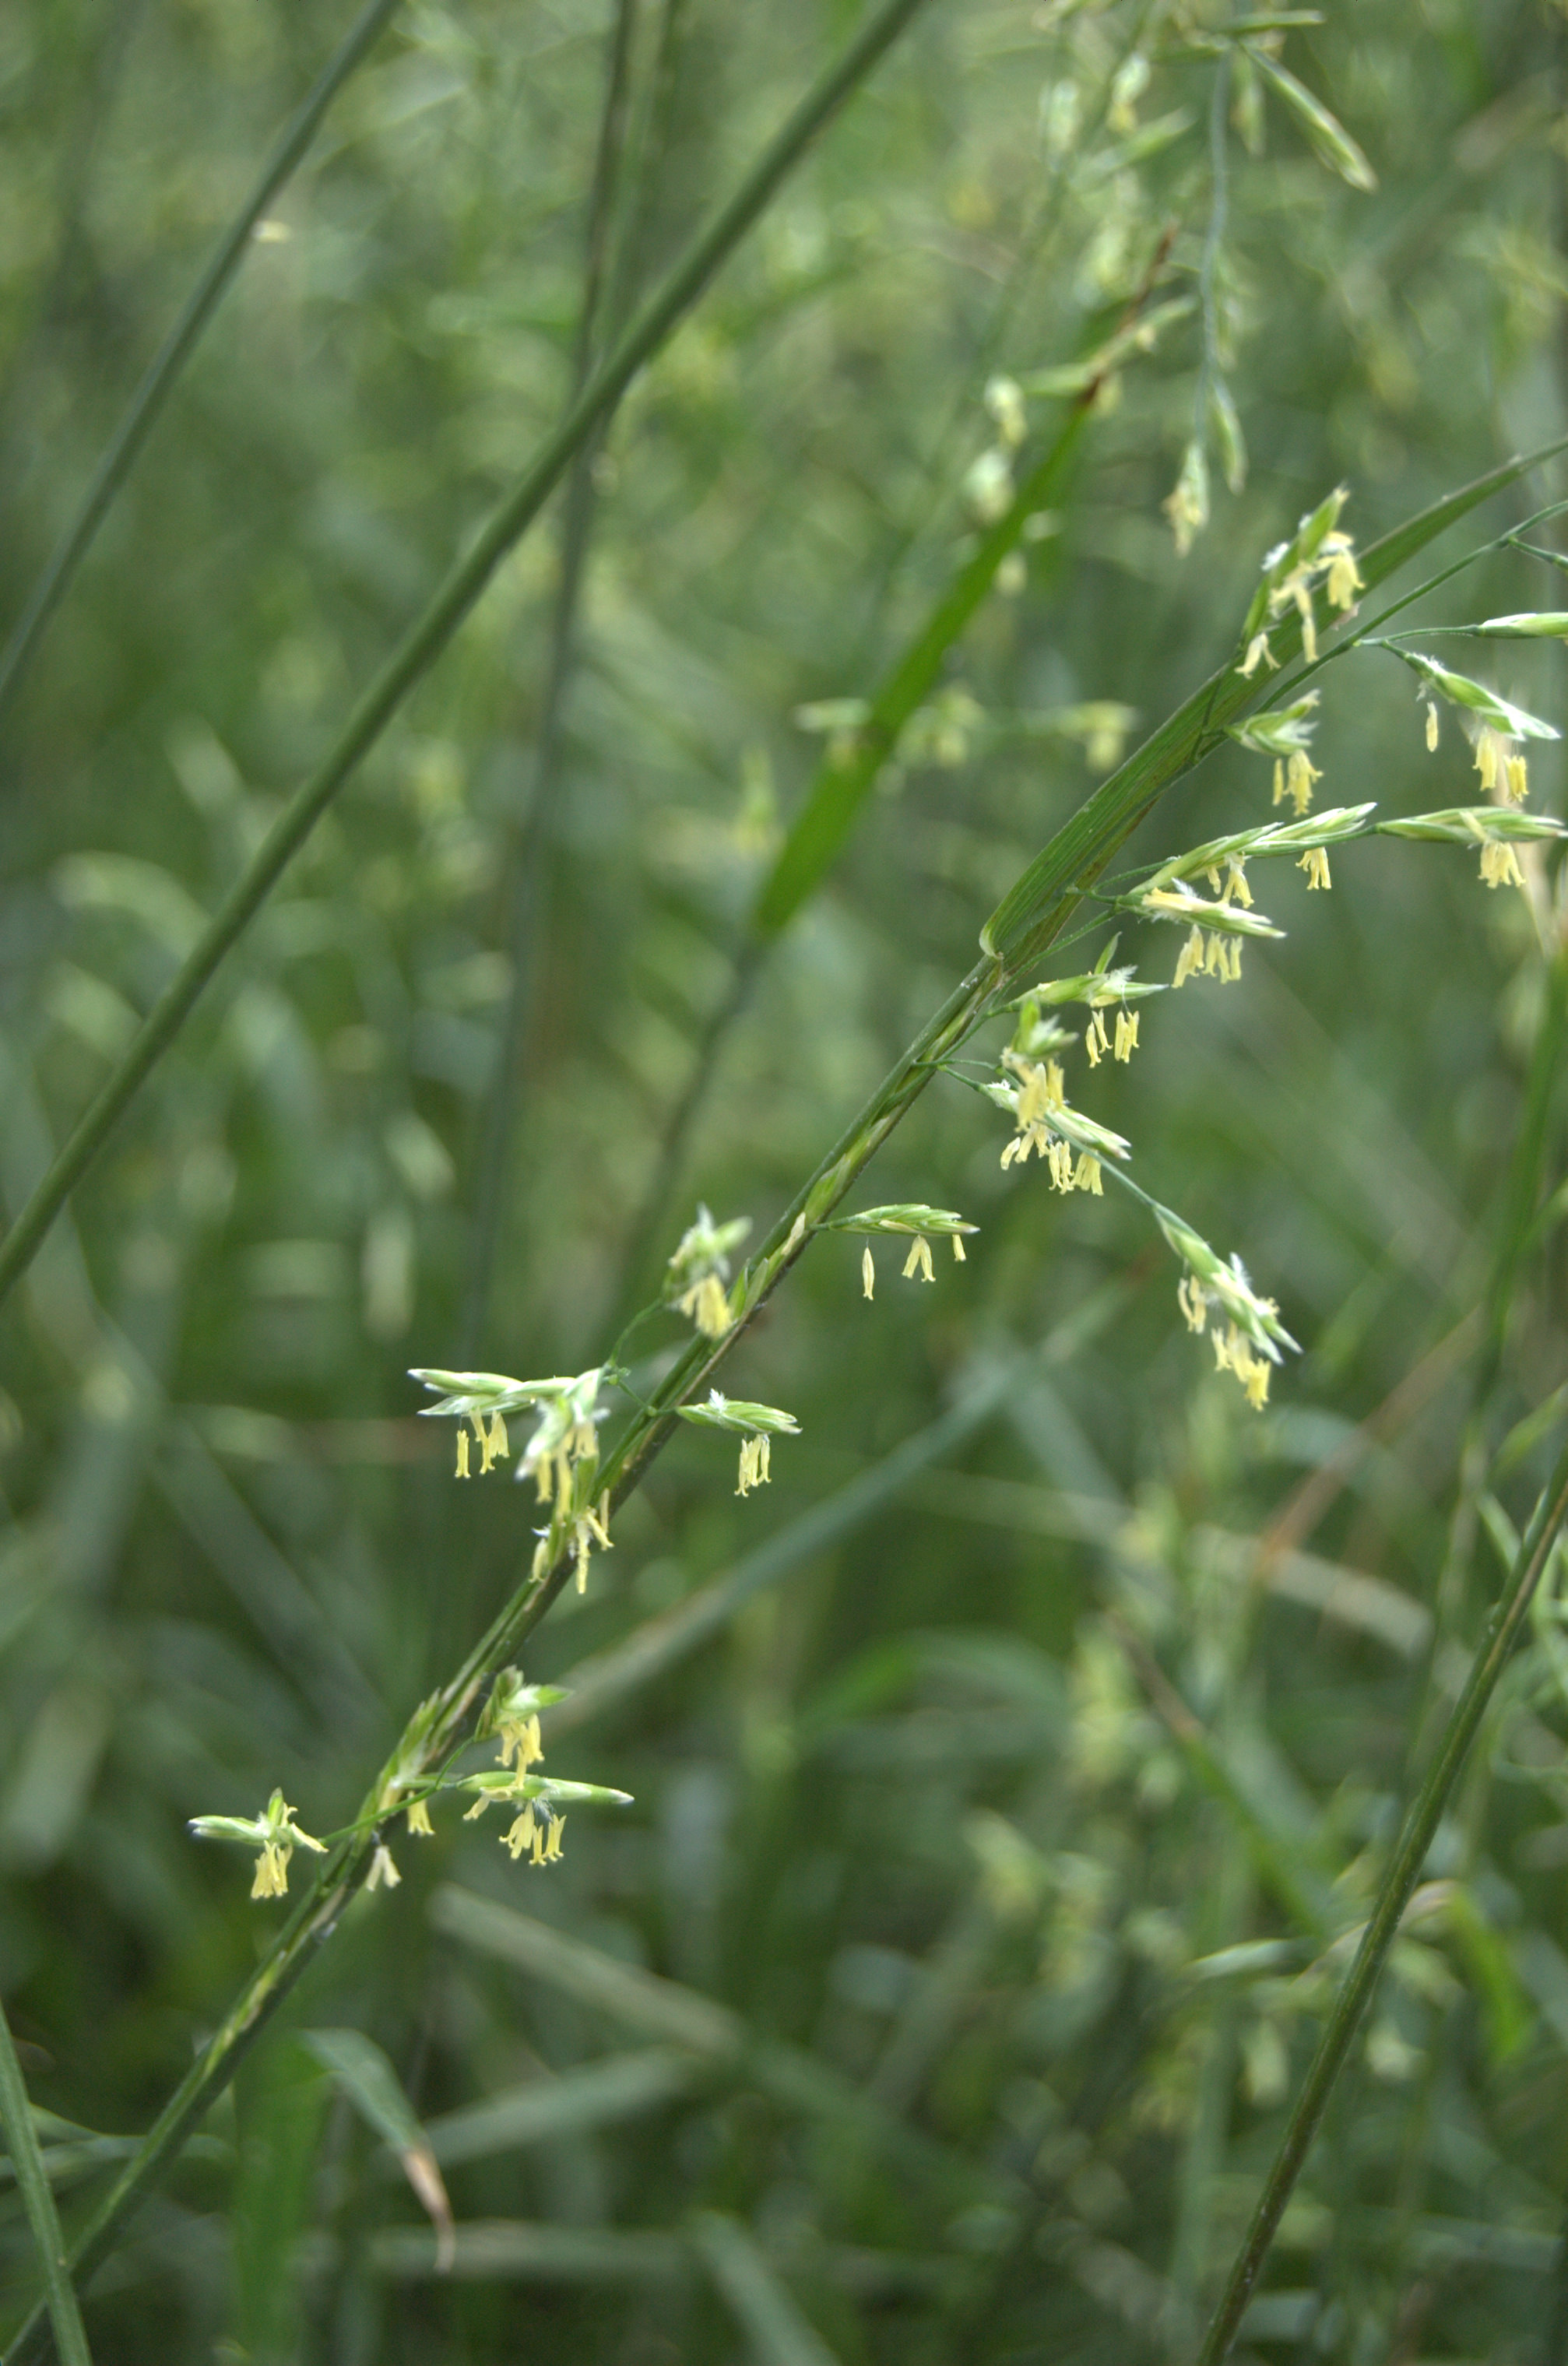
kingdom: Plantae
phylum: Tracheophyta
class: Liliopsida
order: Poales
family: Poaceae
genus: Lolium
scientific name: Lolium pratense
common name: Dover grass
